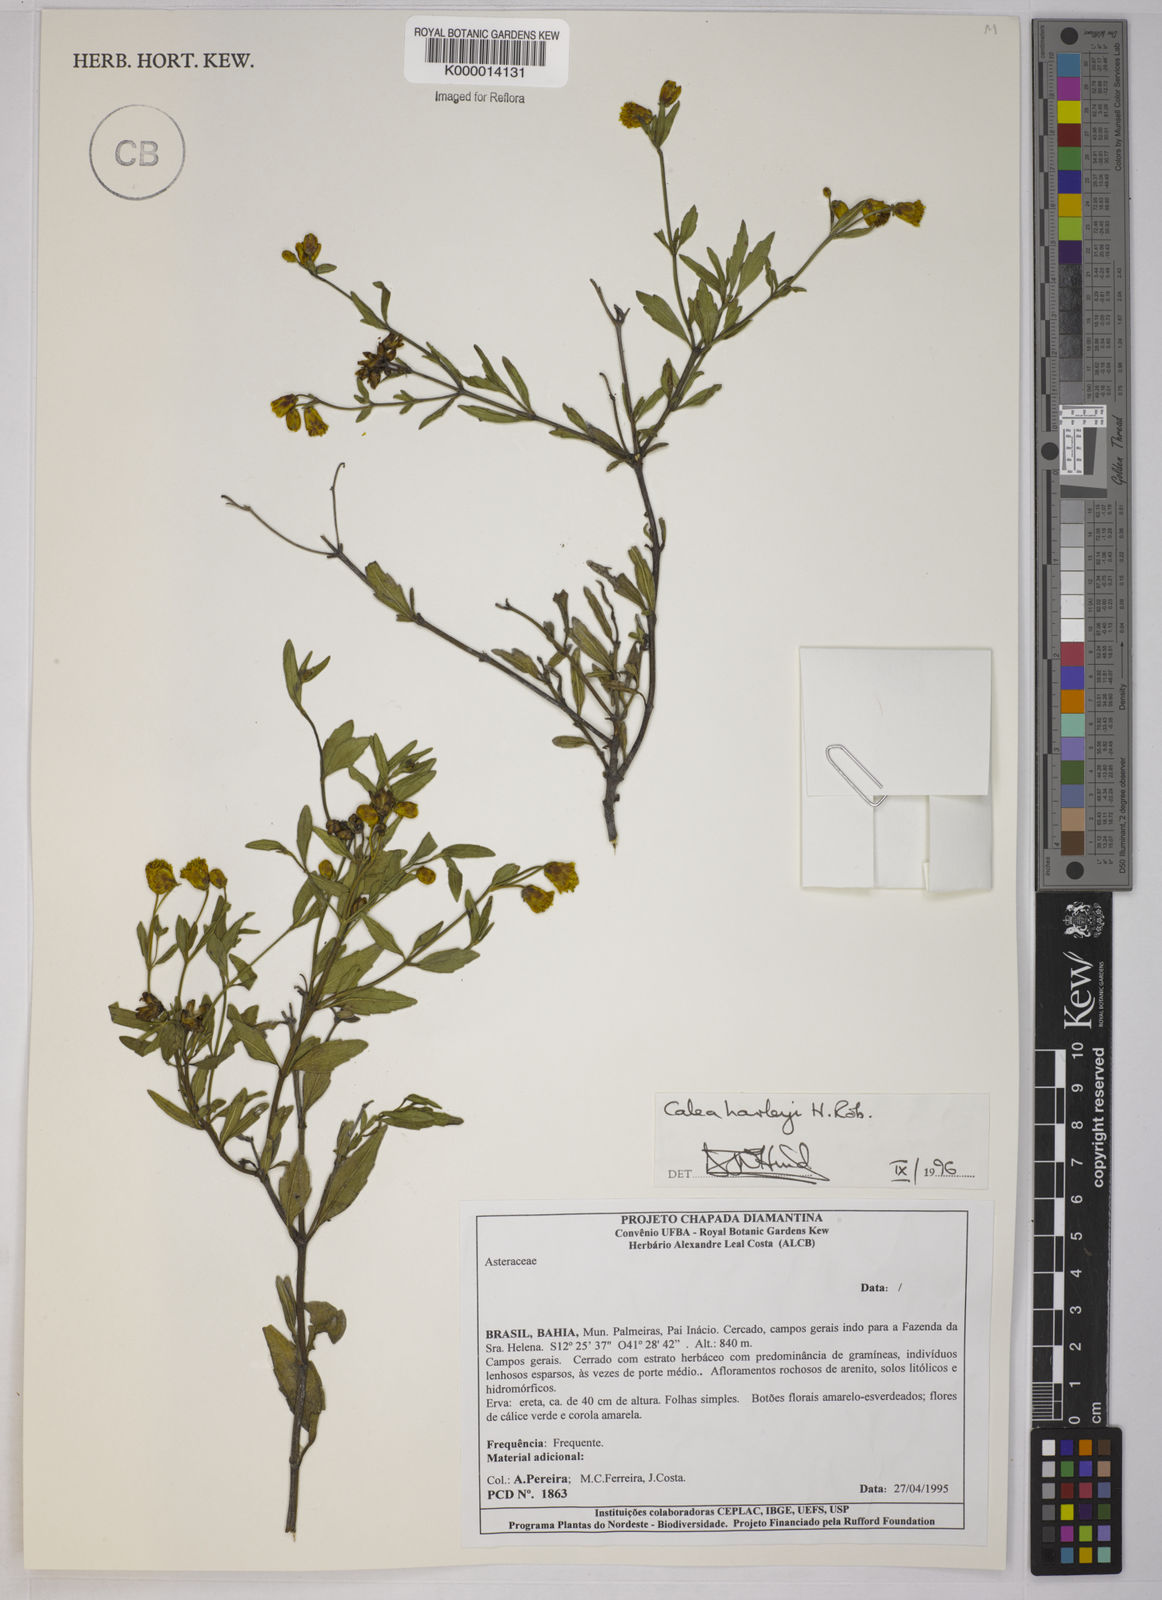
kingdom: Plantae
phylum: Tracheophyta
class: Magnoliopsida
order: Asterales
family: Asteraceae
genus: Calea
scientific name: Calea harleyi
